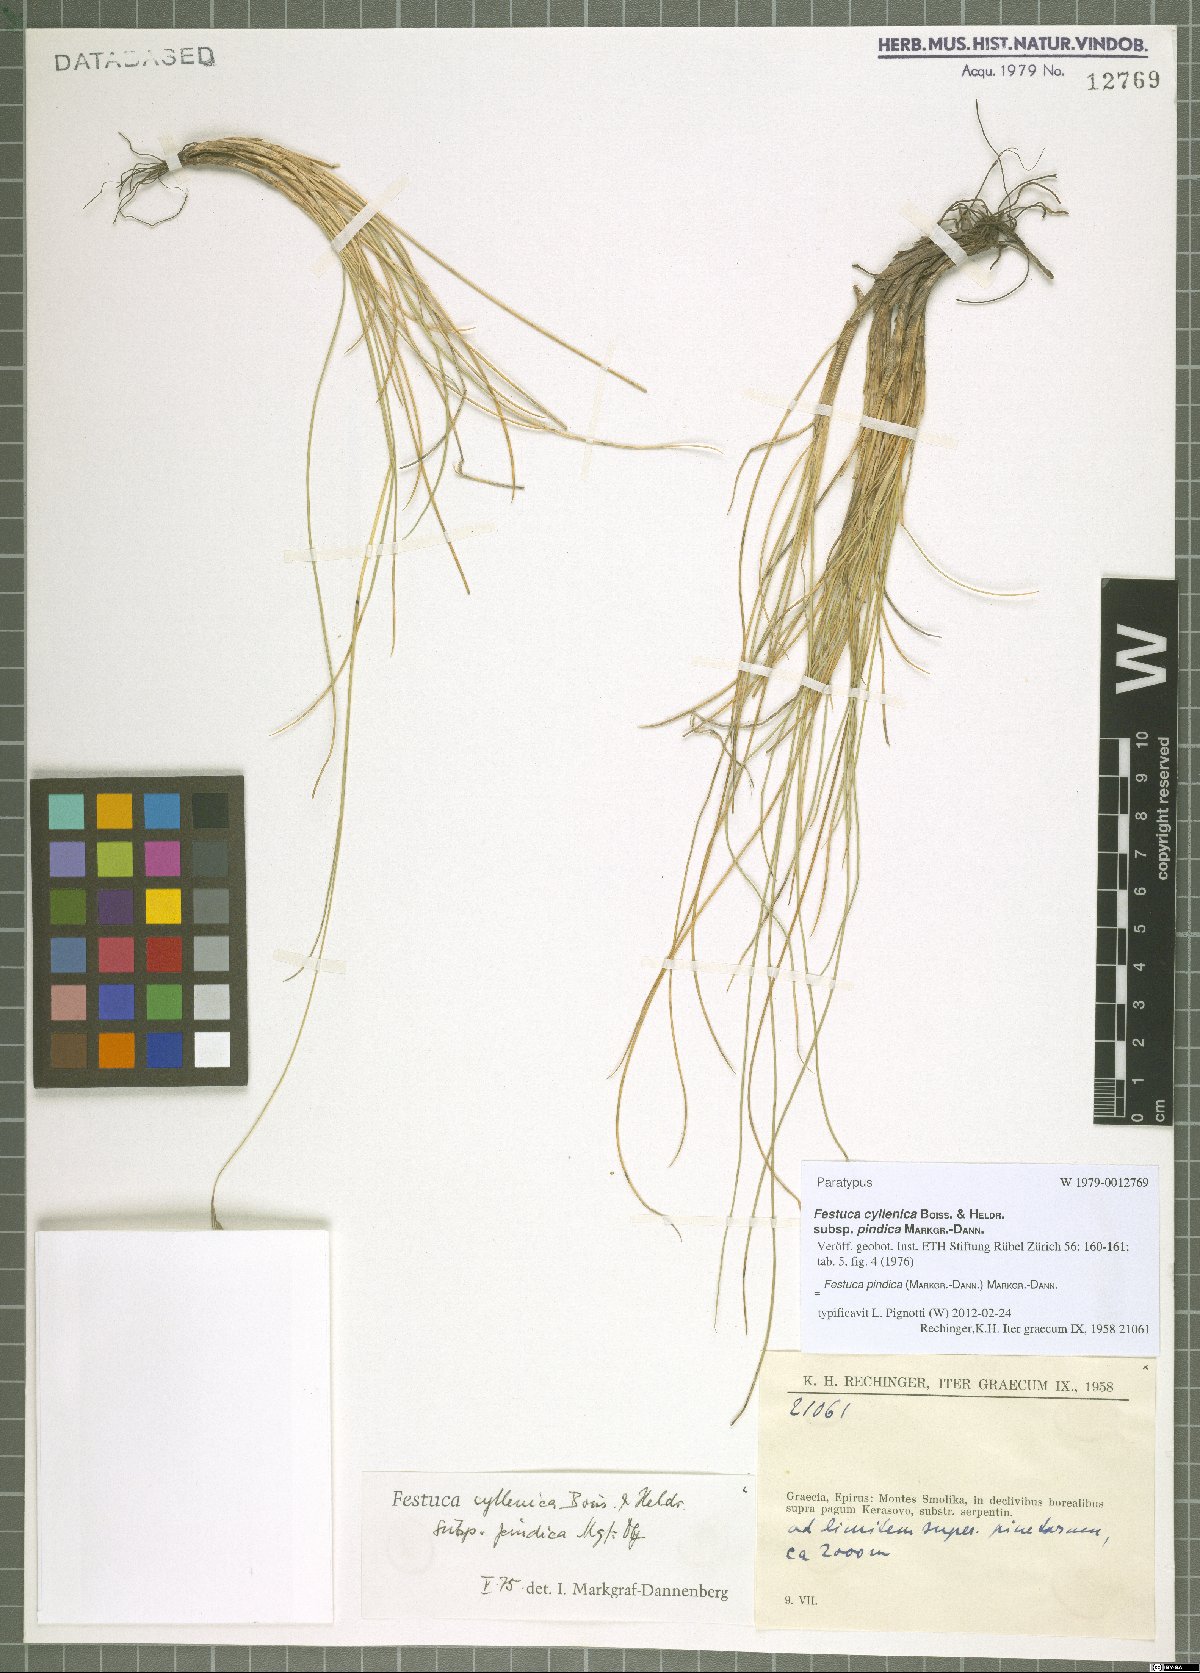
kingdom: Plantae
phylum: Tracheophyta
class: Liliopsida
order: Poales
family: Poaceae
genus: Festuca
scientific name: Festuca pindica
